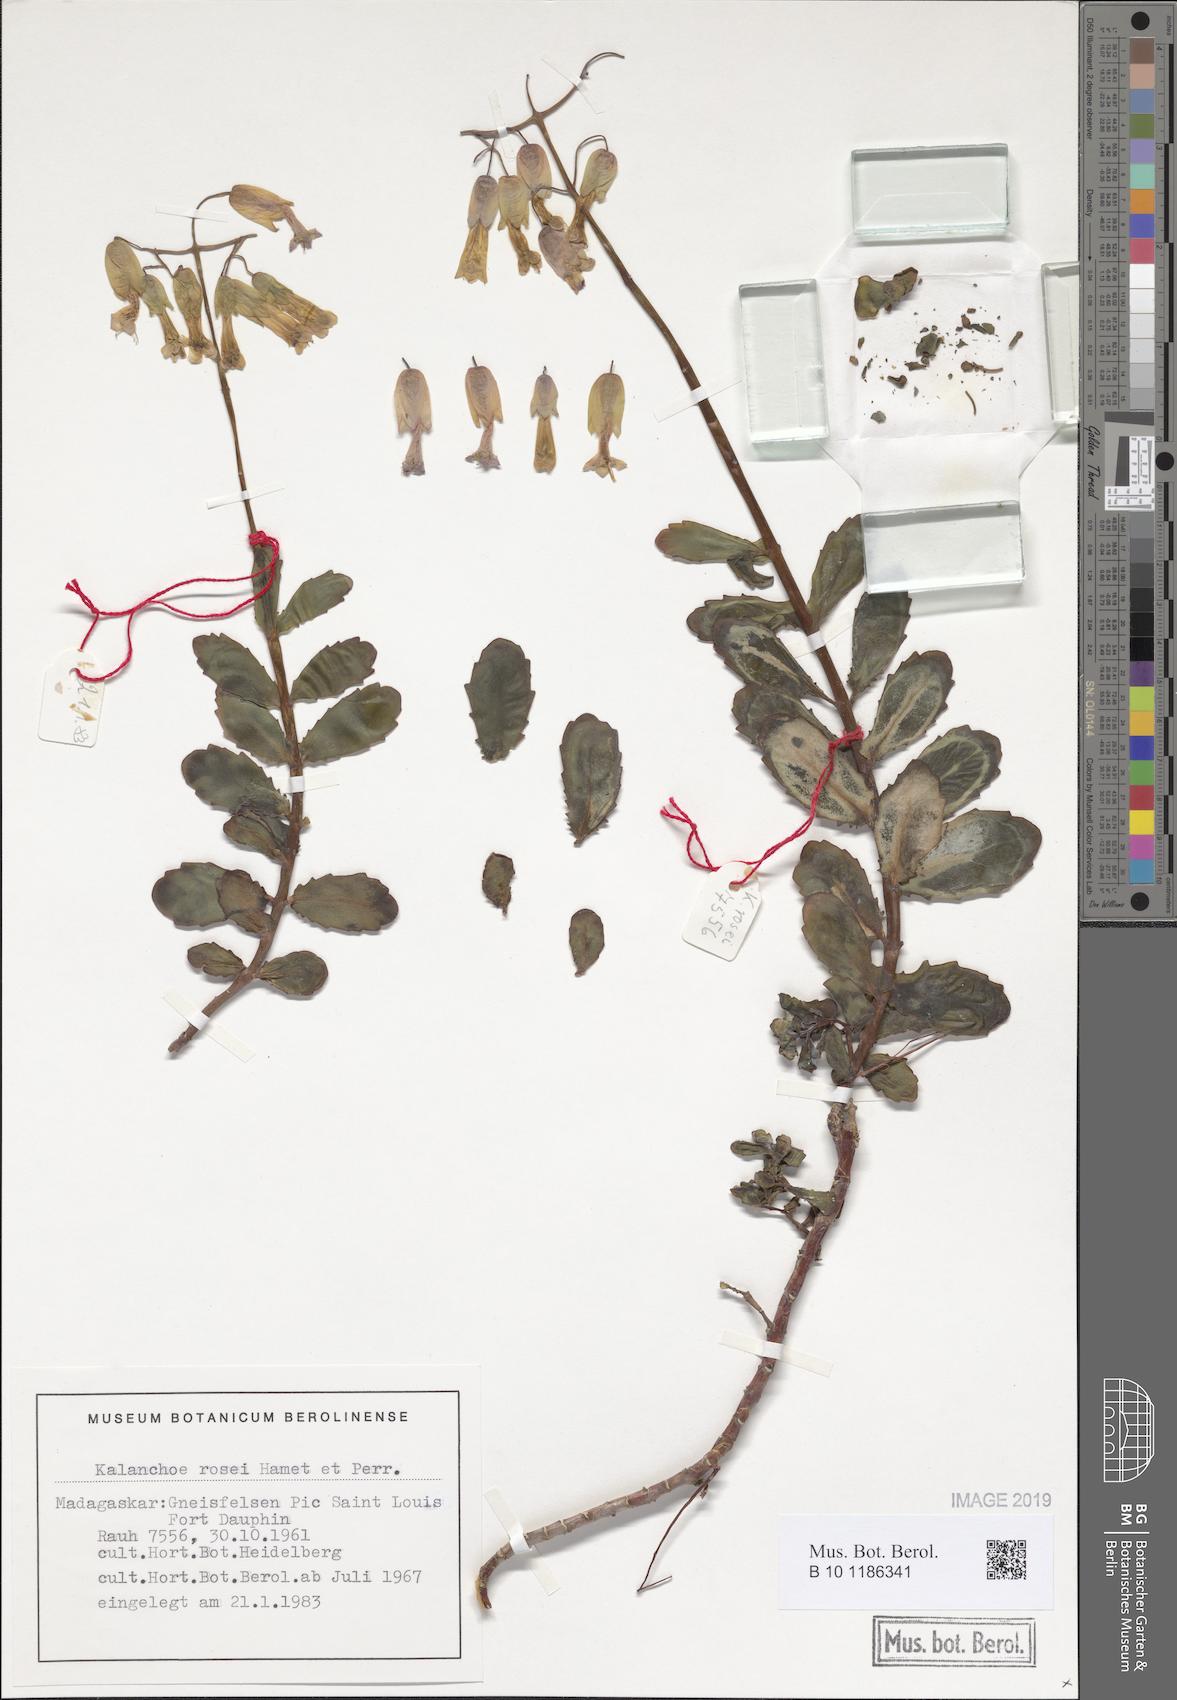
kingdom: Plantae
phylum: Tracheophyta
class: Magnoliopsida
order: Saxifragales
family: Crassulaceae
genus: Kalanchoe
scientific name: Kalanchoe rosei
